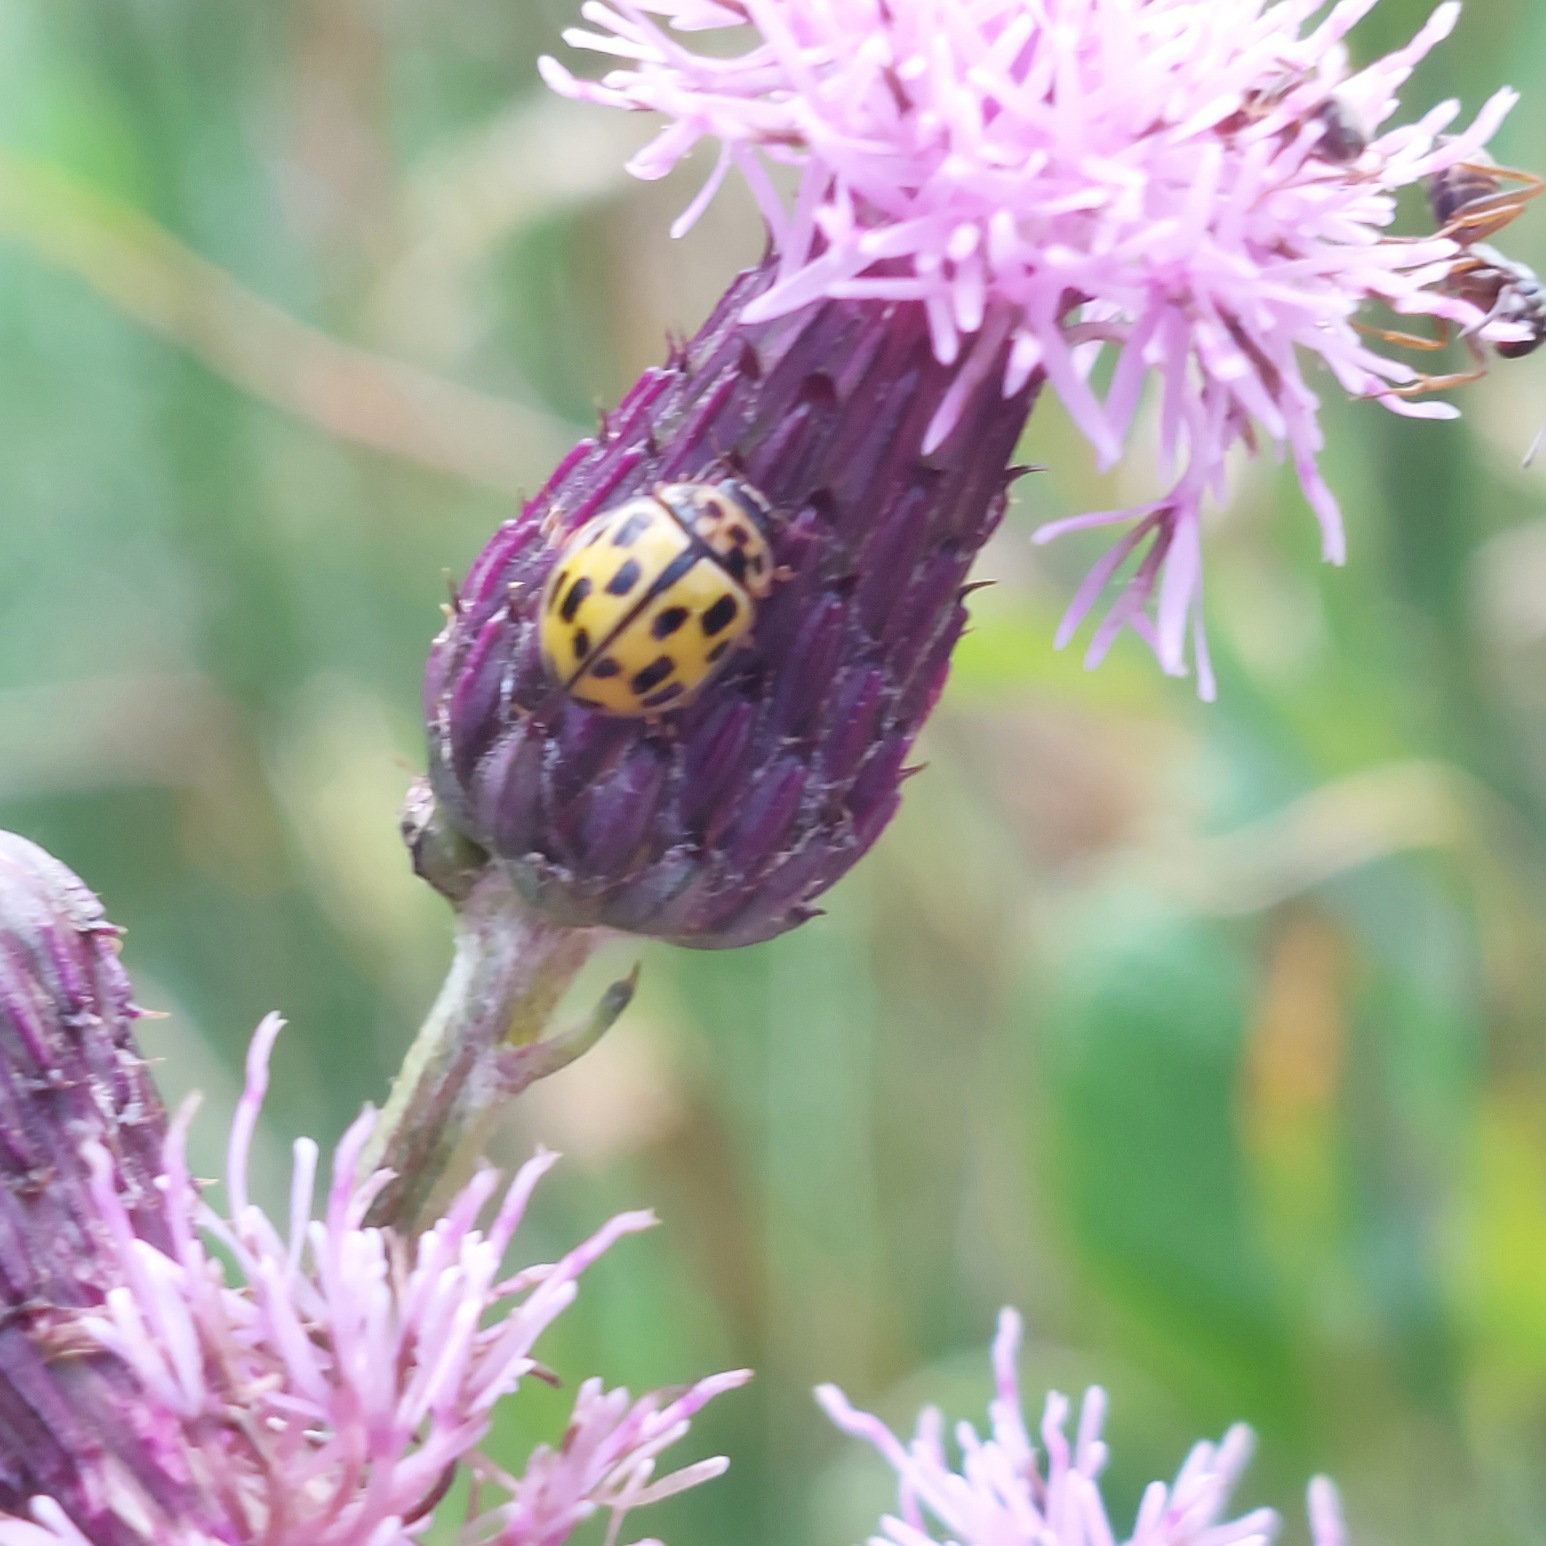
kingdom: Animalia
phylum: Arthropoda
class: Insecta
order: Coleoptera
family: Coccinellidae
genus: Propylaea
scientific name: Propylaea quatuordecimpunctata
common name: Skakbræt
